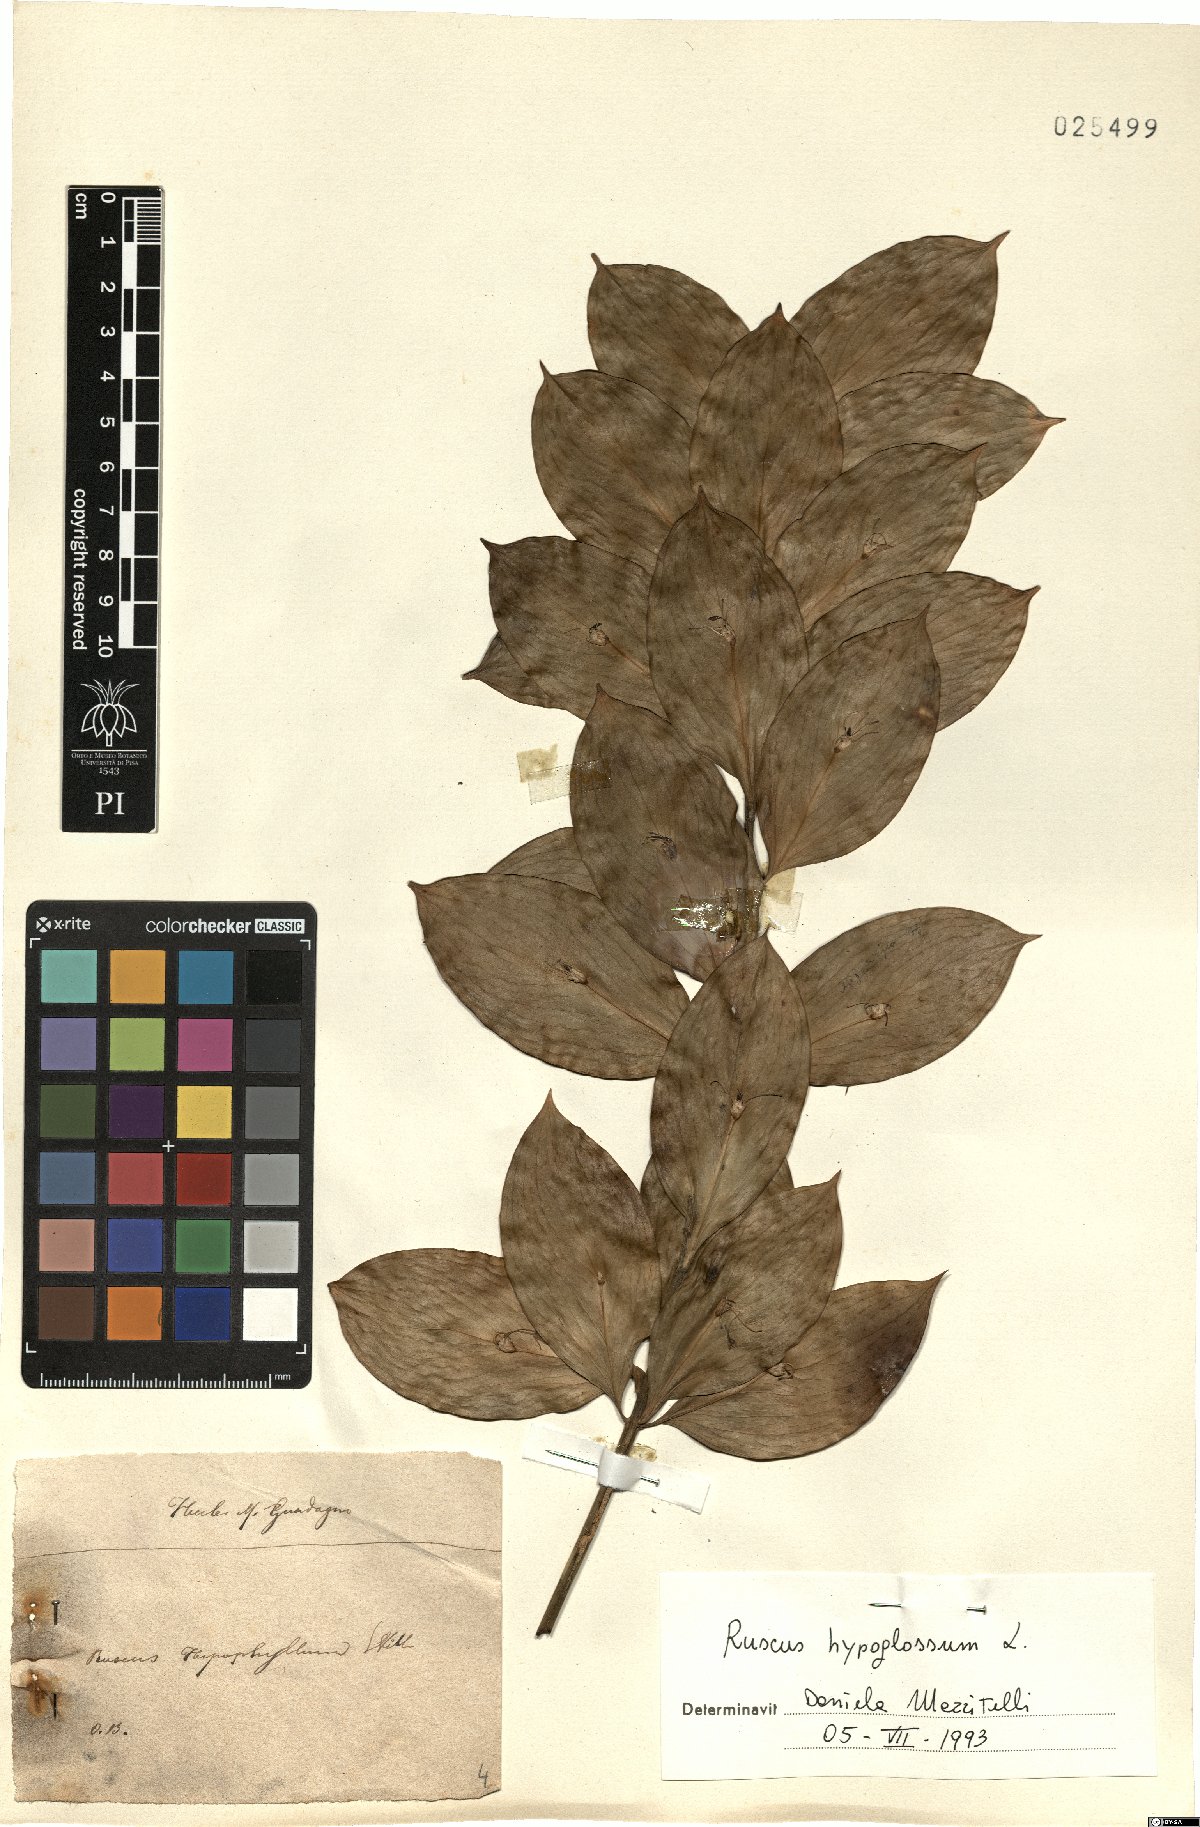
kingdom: Plantae
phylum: Tracheophyta
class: Liliopsida
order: Asparagales
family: Asparagaceae
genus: Ruscus
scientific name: Ruscus hypoglossum
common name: Spineless butcher's-broom
